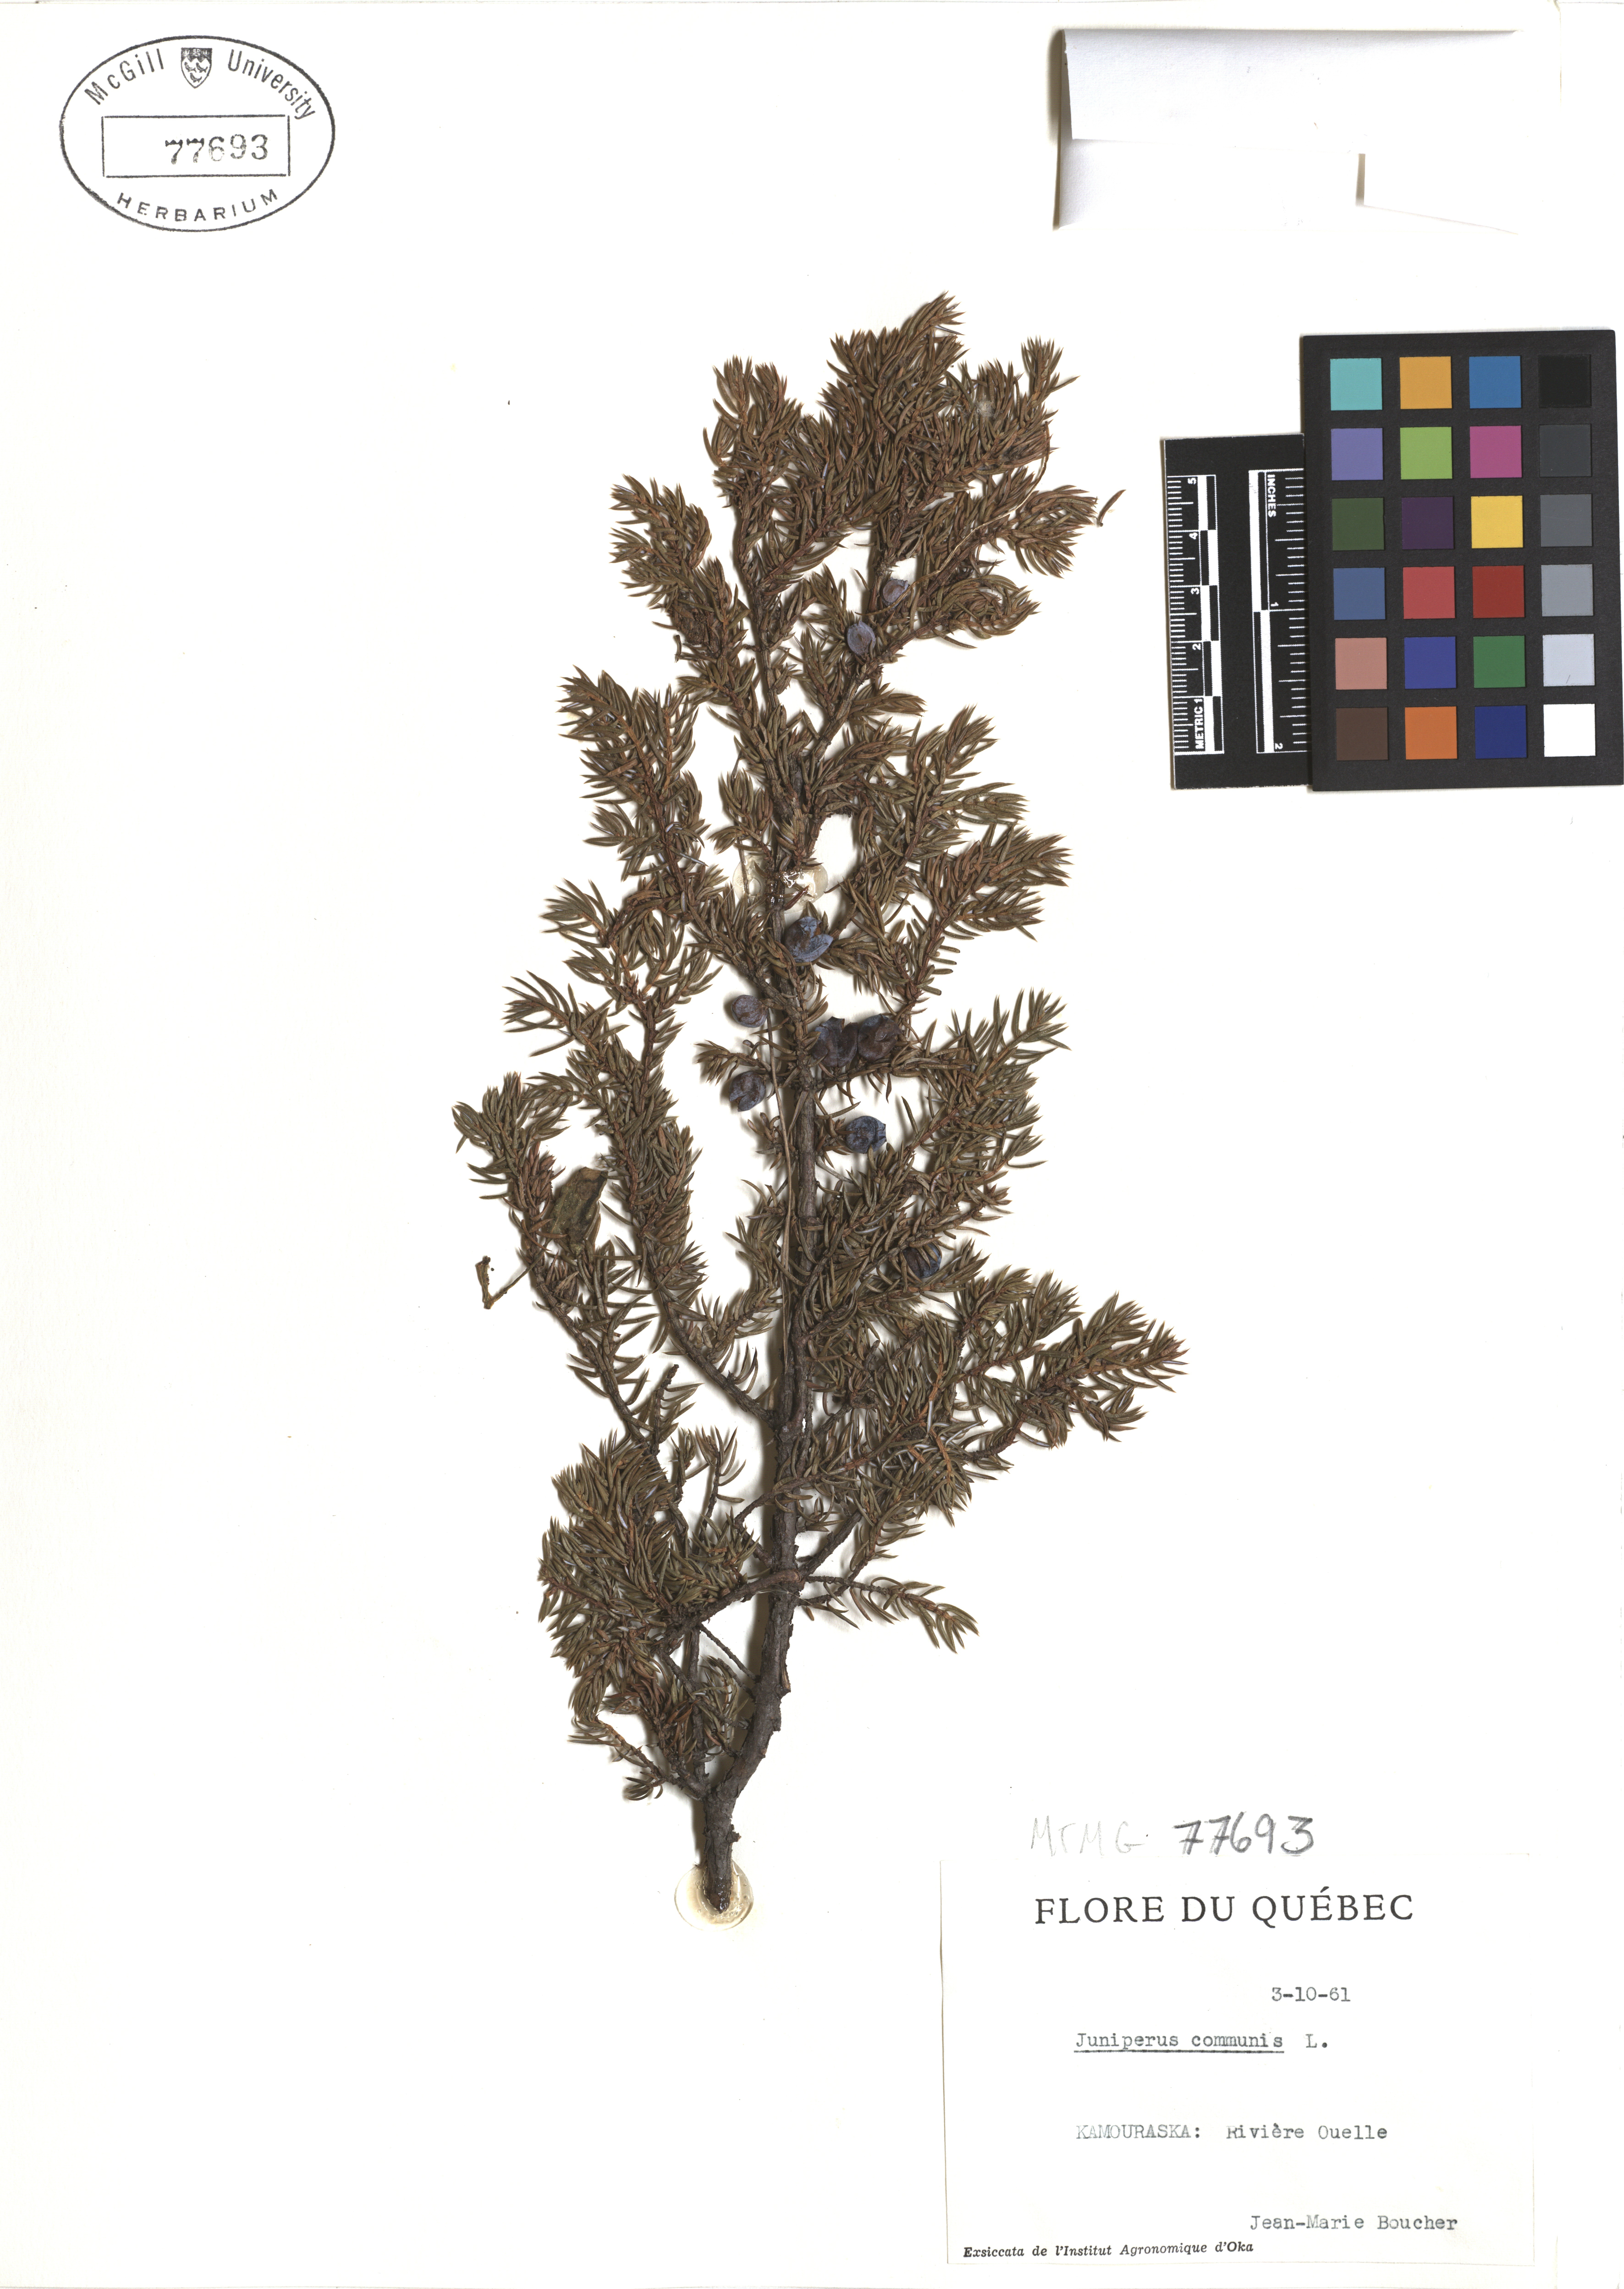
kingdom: Plantae
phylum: Tracheophyta
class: Pinopsida
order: Pinales
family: Cupressaceae
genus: Juniperus
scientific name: Juniperus communis
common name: Common juniper
